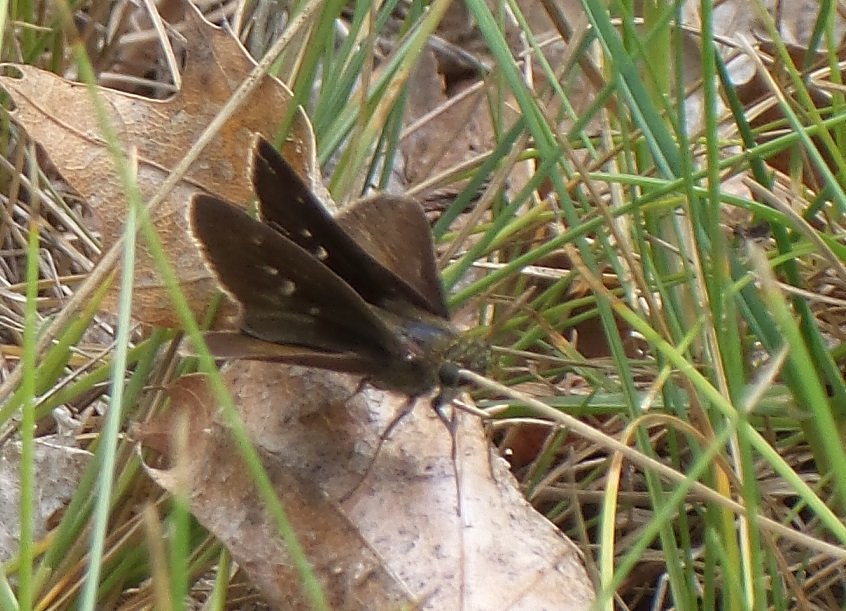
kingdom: Animalia
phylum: Arthropoda
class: Insecta
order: Lepidoptera
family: Hesperiidae
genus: Euphyes
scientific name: Euphyes vestris
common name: Dun Skipper
